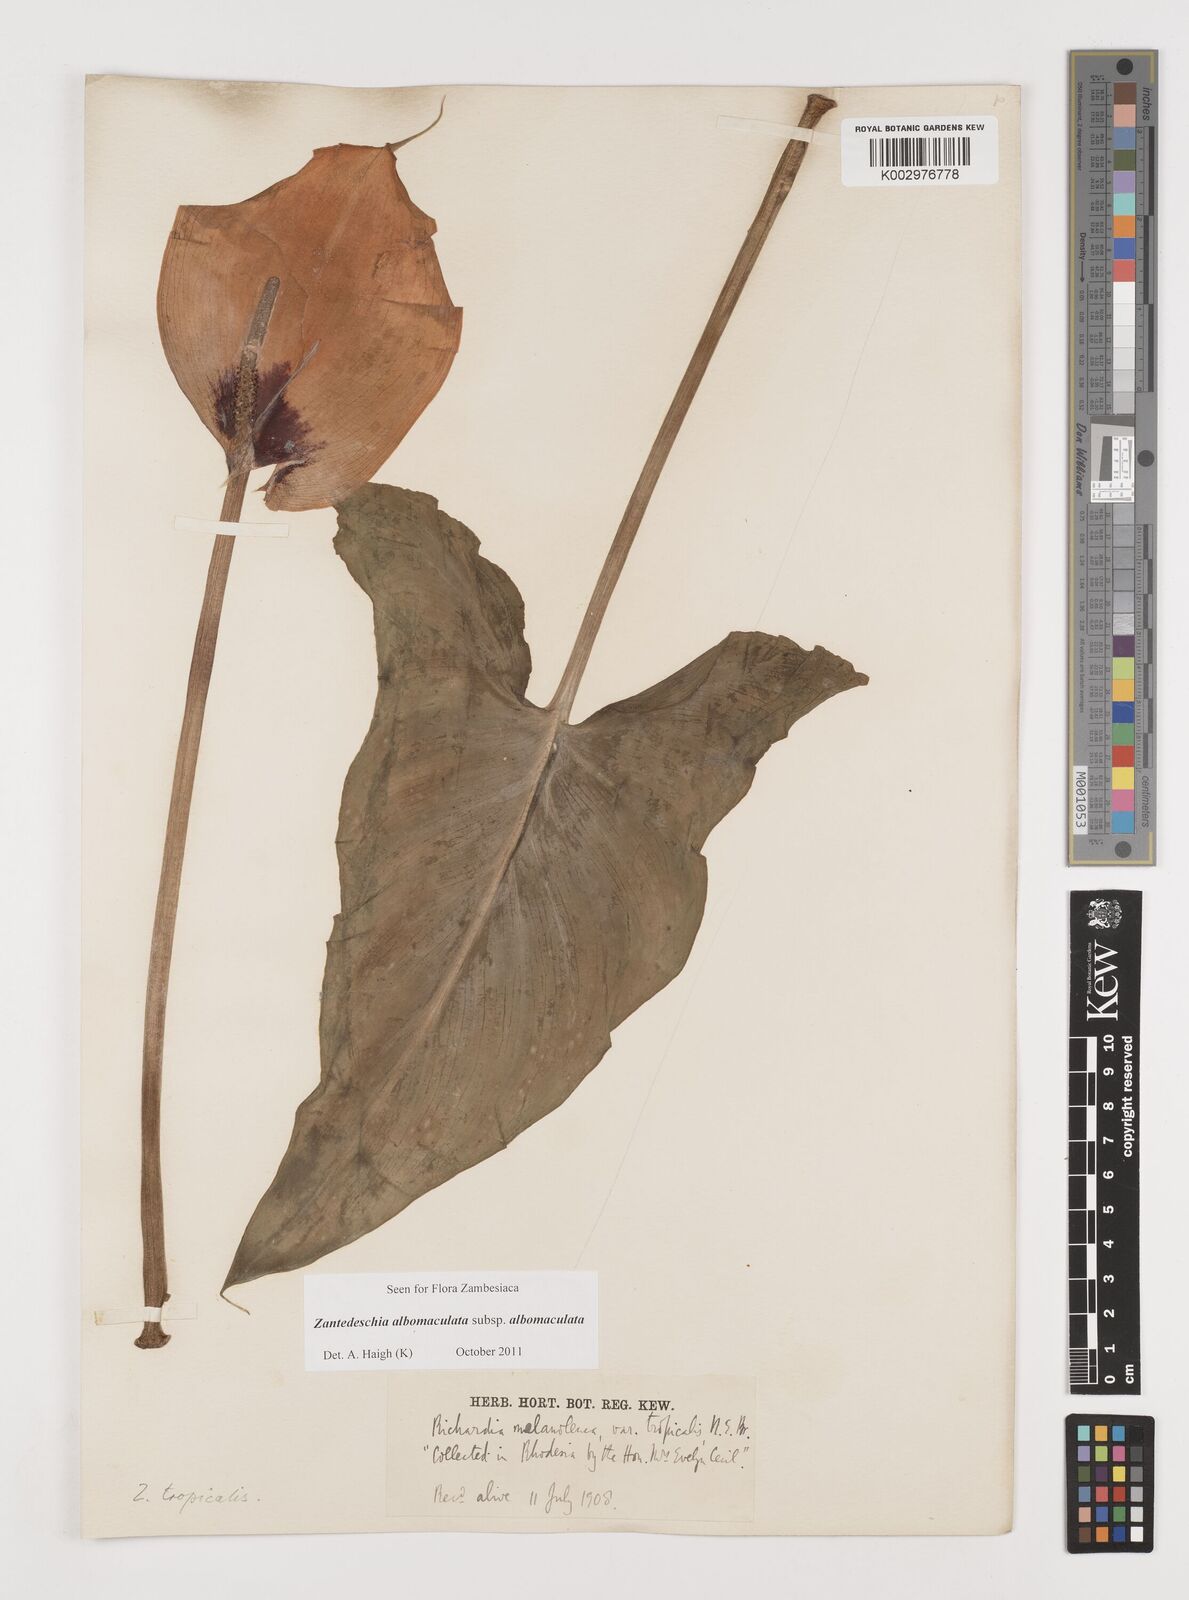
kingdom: Plantae
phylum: Tracheophyta
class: Liliopsida
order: Alismatales
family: Araceae
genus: Zantedeschia
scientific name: Zantedeschia albomaculata
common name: Spotted calla lily
